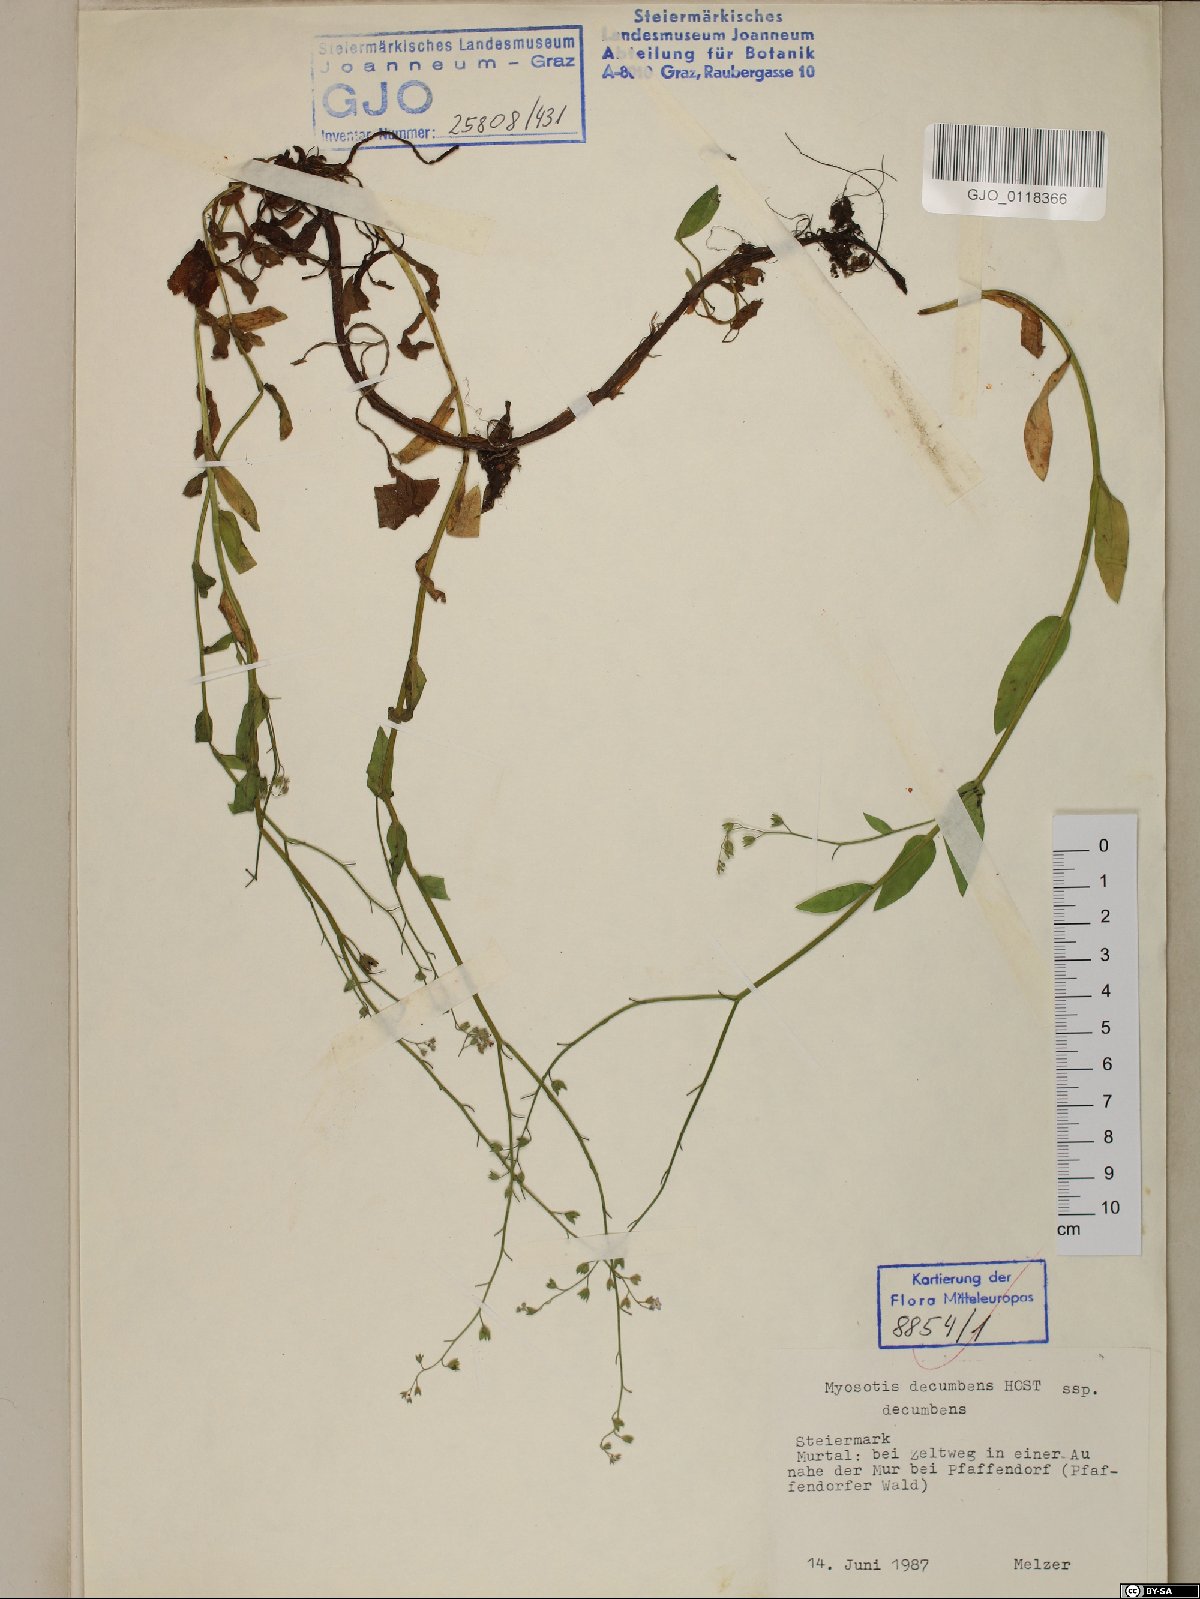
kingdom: Plantae
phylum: Tracheophyta
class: Magnoliopsida
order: Boraginales
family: Boraginaceae
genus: Myosotis
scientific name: Myosotis decumbens
